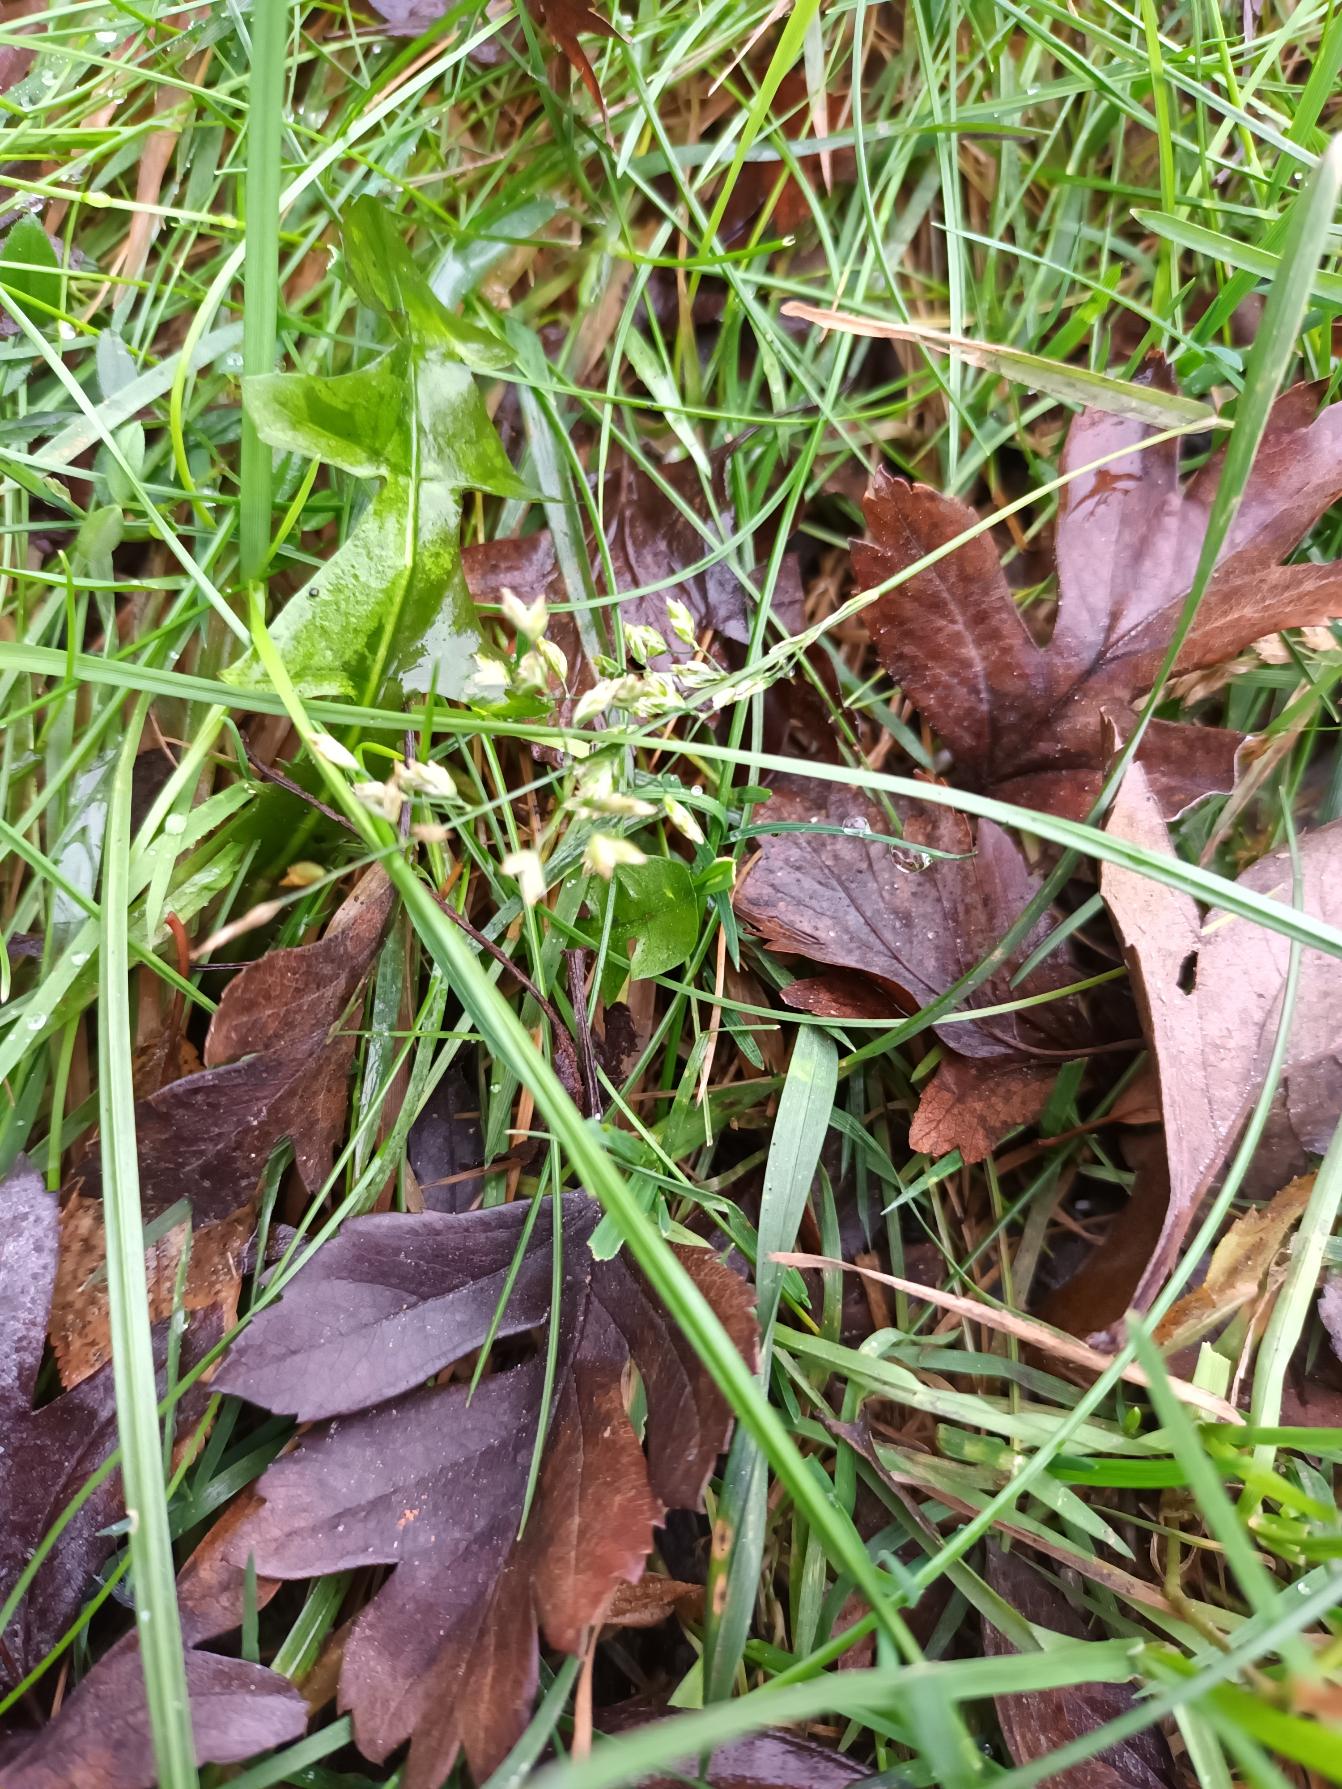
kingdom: Plantae
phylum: Tracheophyta
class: Liliopsida
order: Poales
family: Poaceae
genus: Poa
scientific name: Poa annua
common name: Enårig rapgræs
